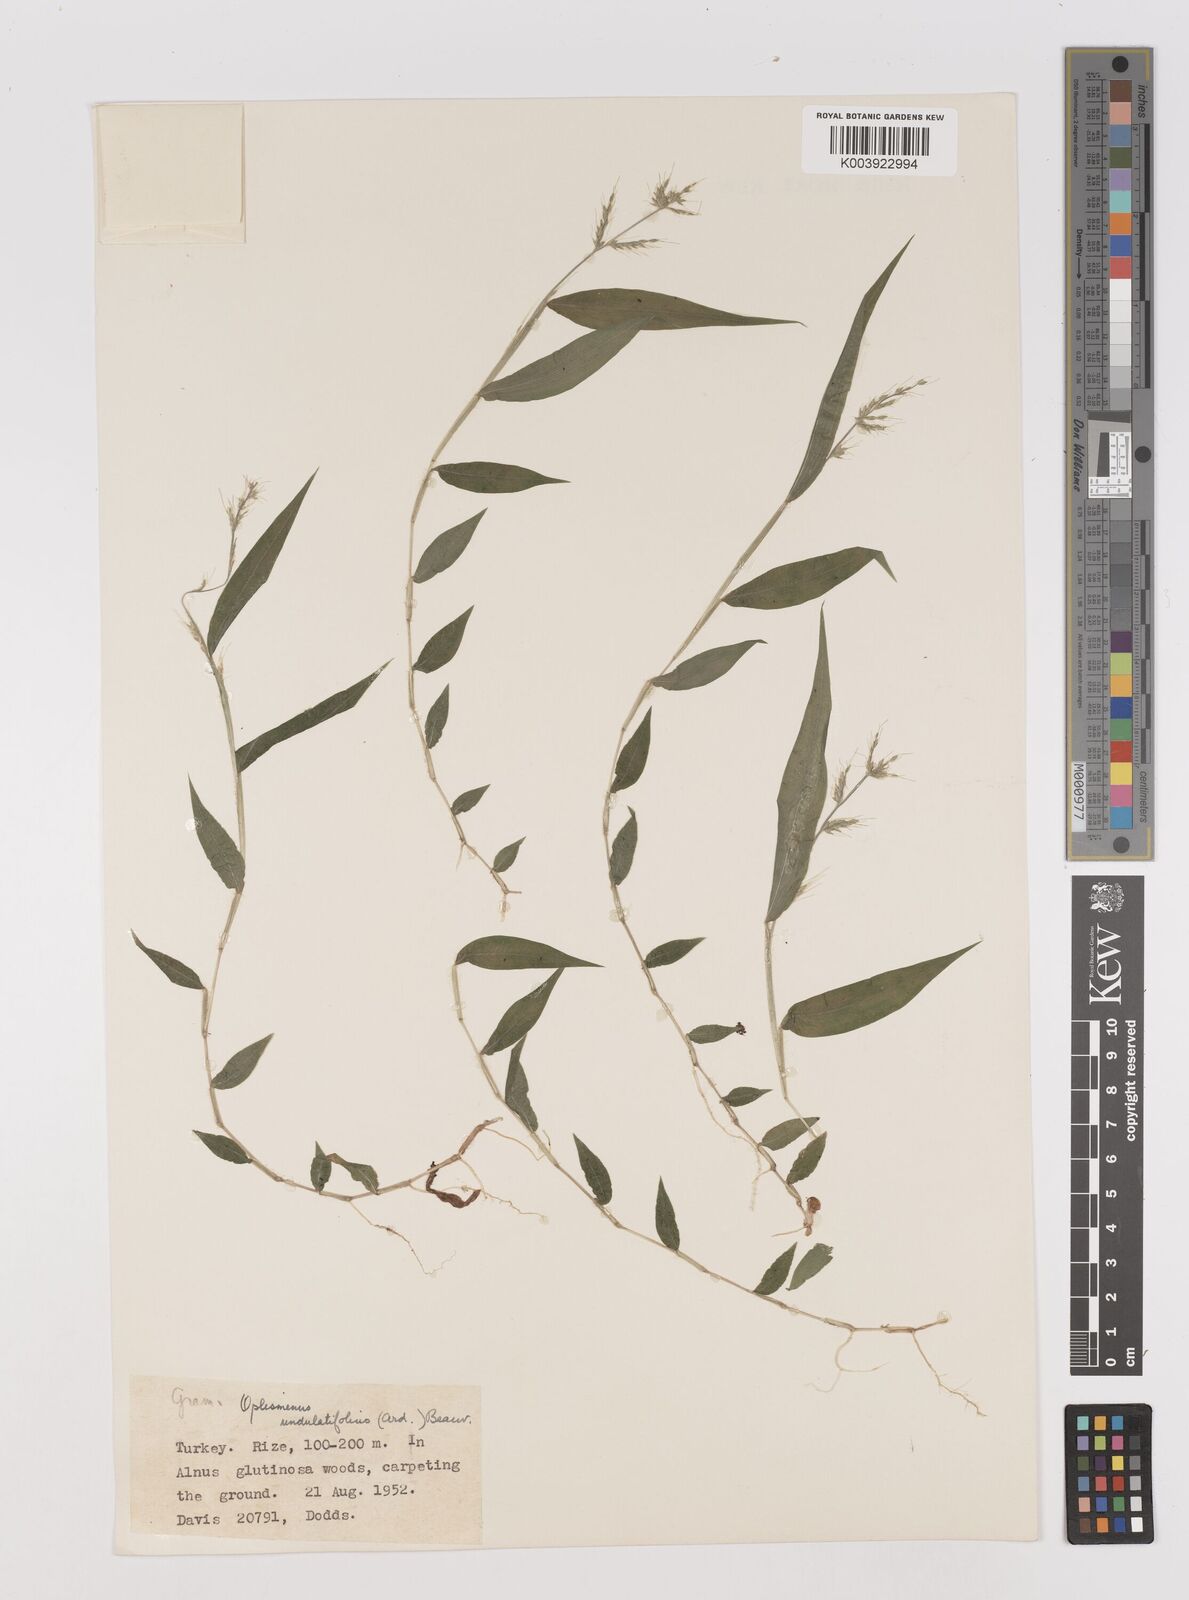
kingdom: Plantae
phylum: Tracheophyta
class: Liliopsida
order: Poales
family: Poaceae
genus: Oplismenus
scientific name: Oplismenus undulatifolius
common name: Wavyleaf basketgrass
